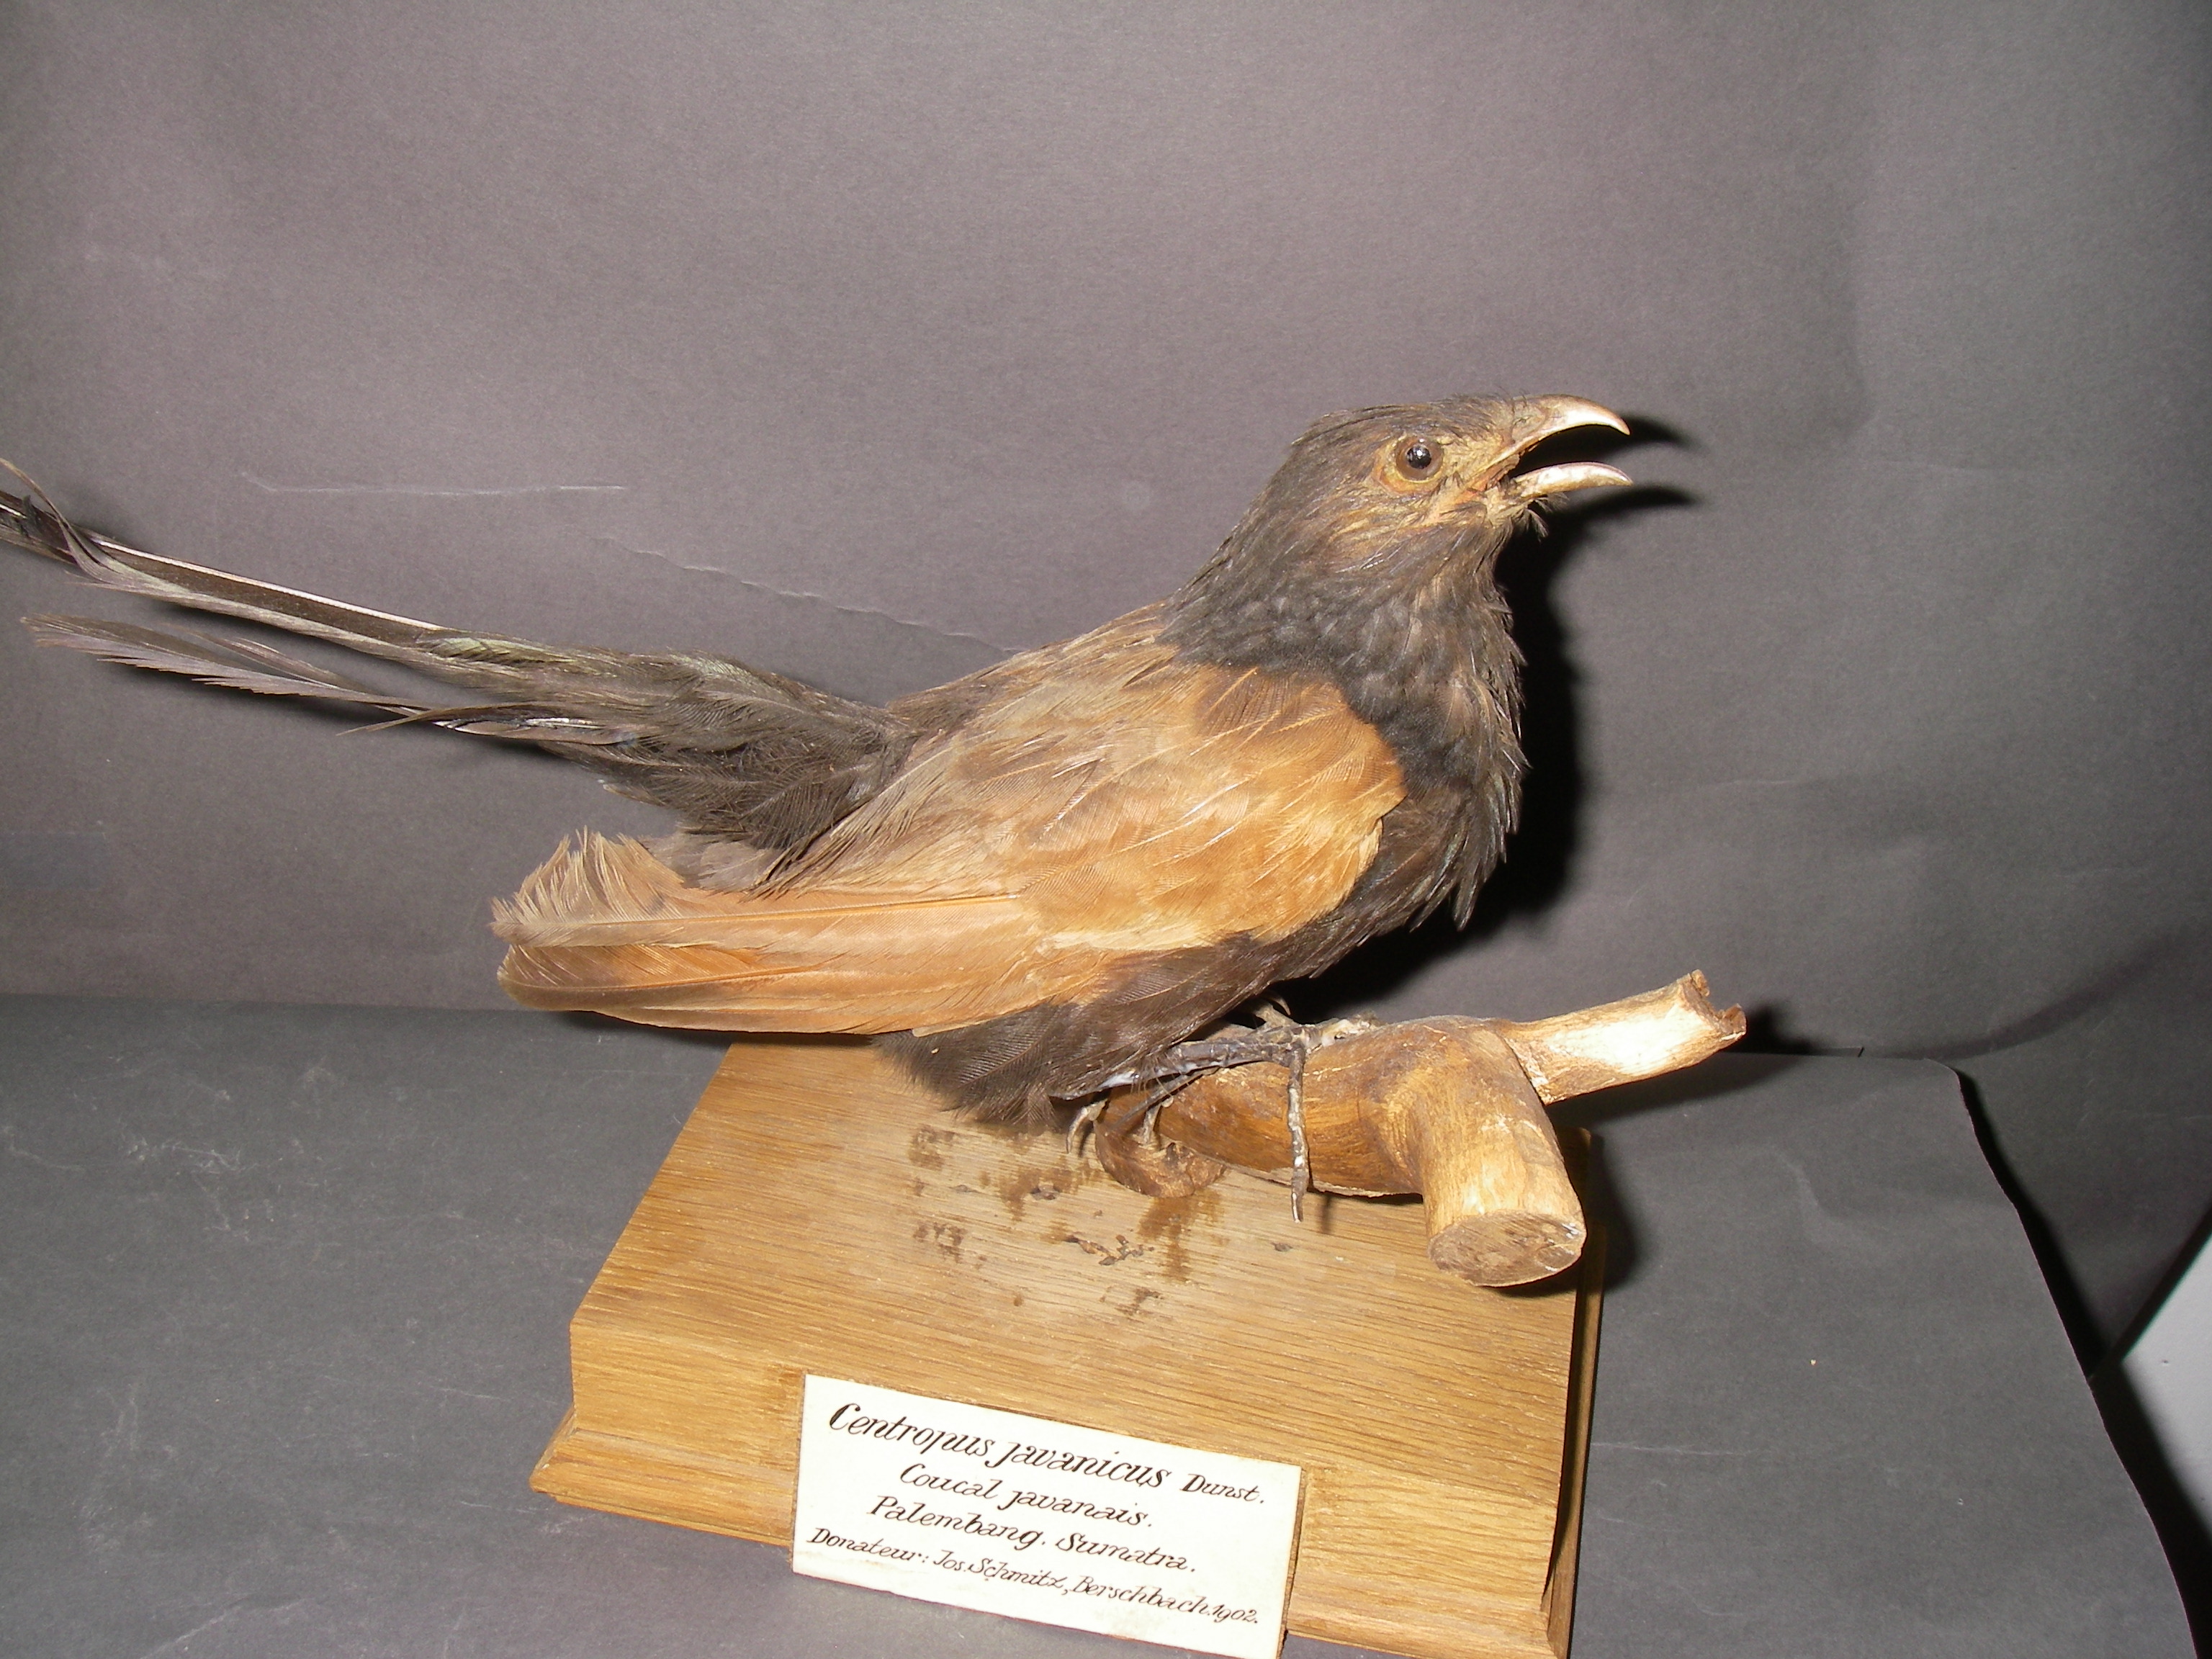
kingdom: Animalia
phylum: Chordata
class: Aves
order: Cuculiformes
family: Cuculidae
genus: Centropus
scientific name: Centropus bengalensis
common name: Lesser coucal
